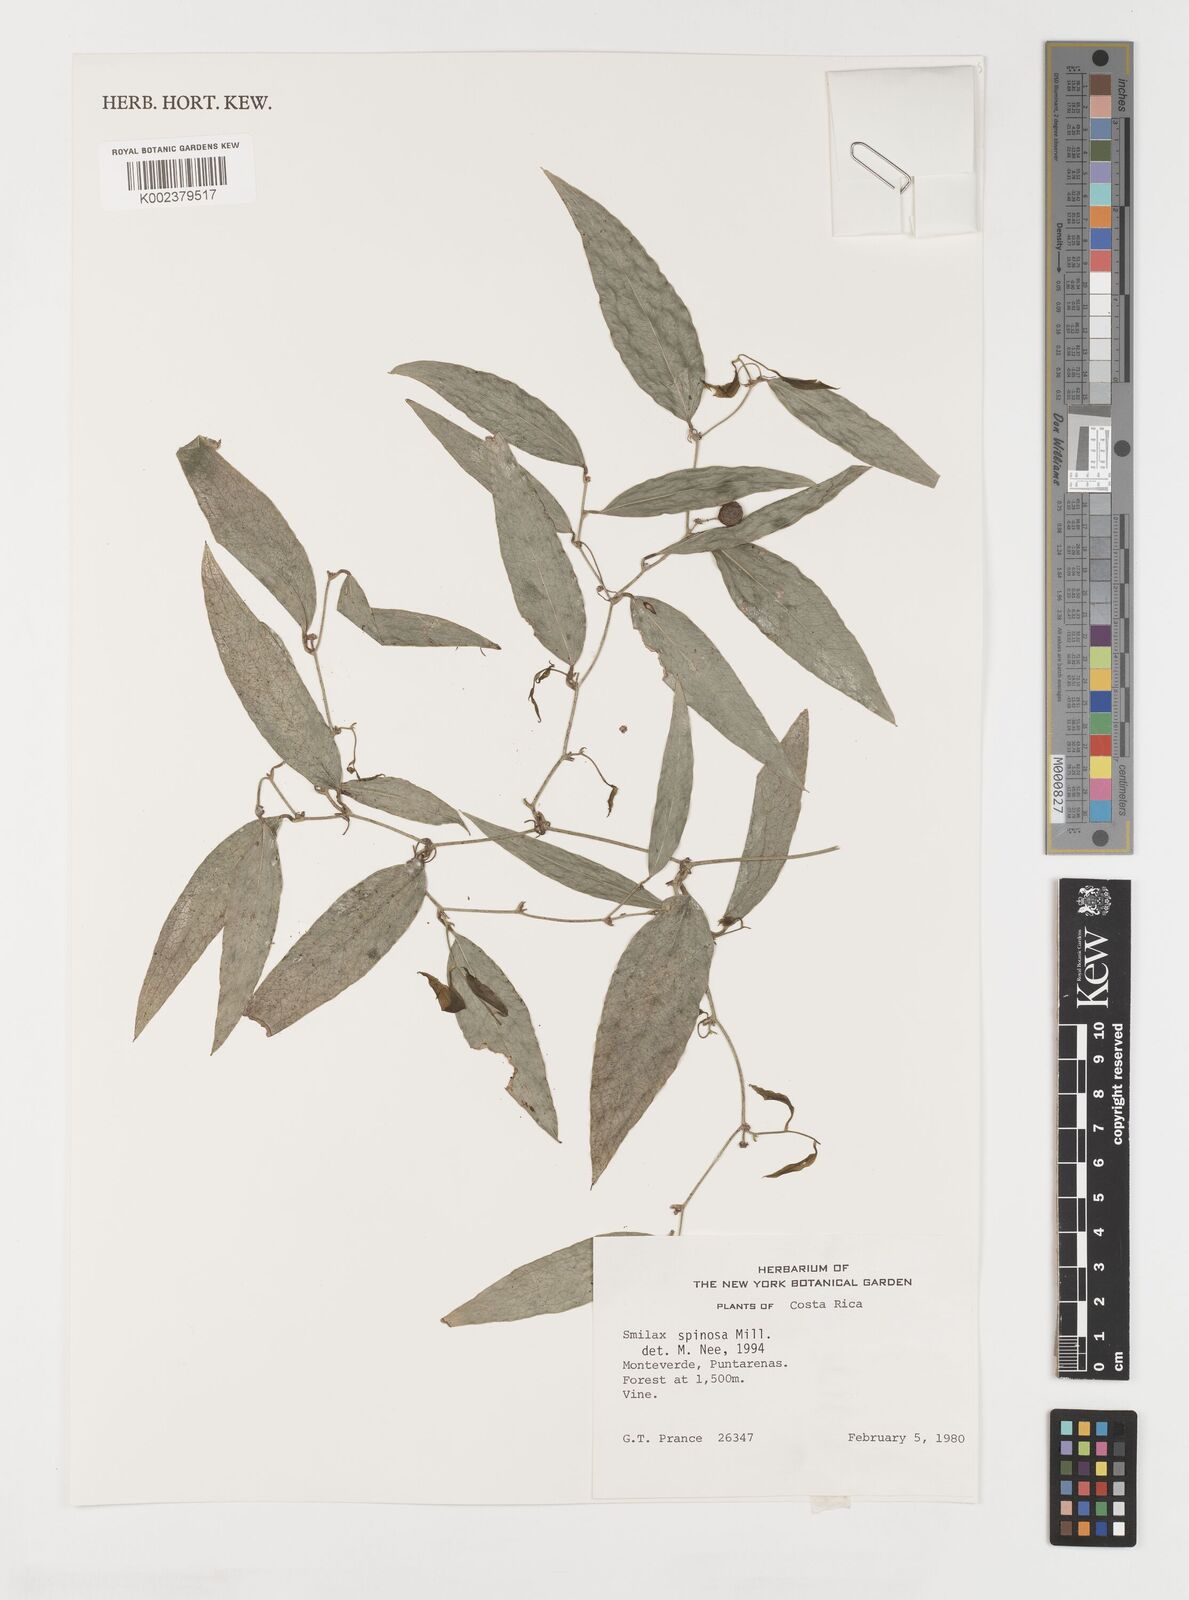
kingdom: Plantae
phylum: Tracheophyta
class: Liliopsida
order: Liliales
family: Smilacaceae
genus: Smilax
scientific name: Smilax spinosa
